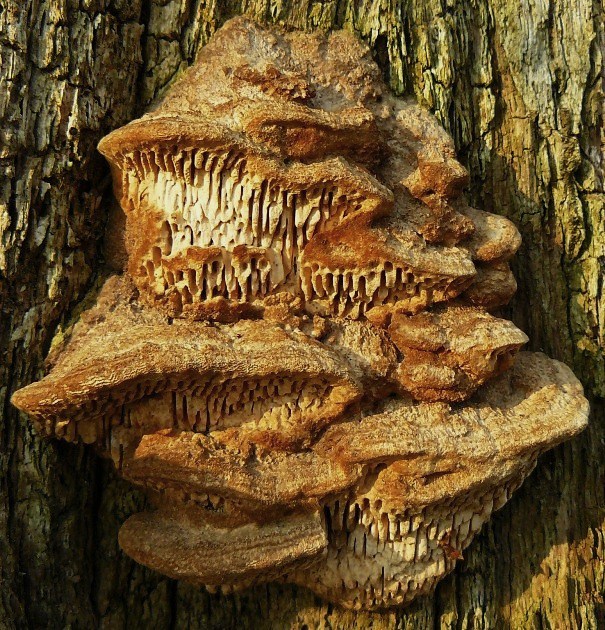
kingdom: Fungi
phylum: Basidiomycota
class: Agaricomycetes
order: Polyporales
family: Fomitopsidaceae
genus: Daedalea
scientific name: Daedalea quercina
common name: ege-labyrintsvamp
